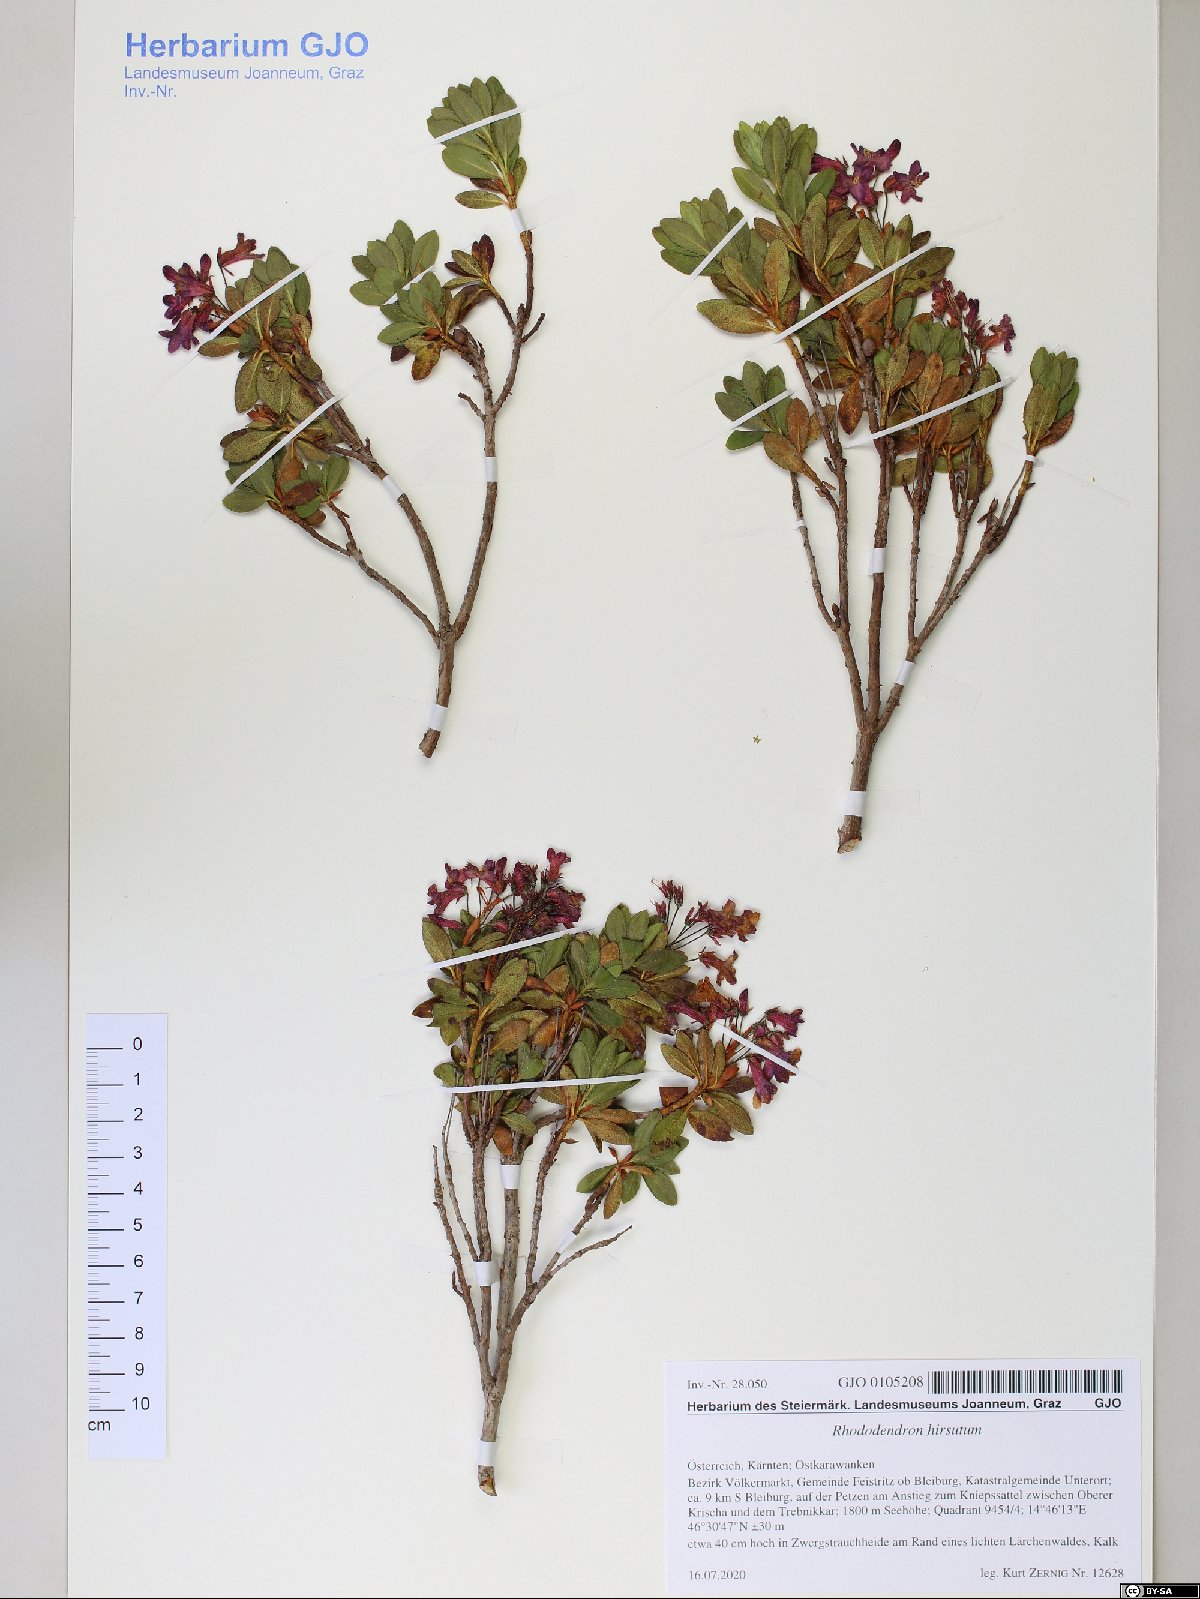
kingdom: Plantae
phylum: Tracheophyta
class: Magnoliopsida
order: Ericales
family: Ericaceae
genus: Rhododendron
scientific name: Rhododendron hirsutum
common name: Hairy alpenrose
